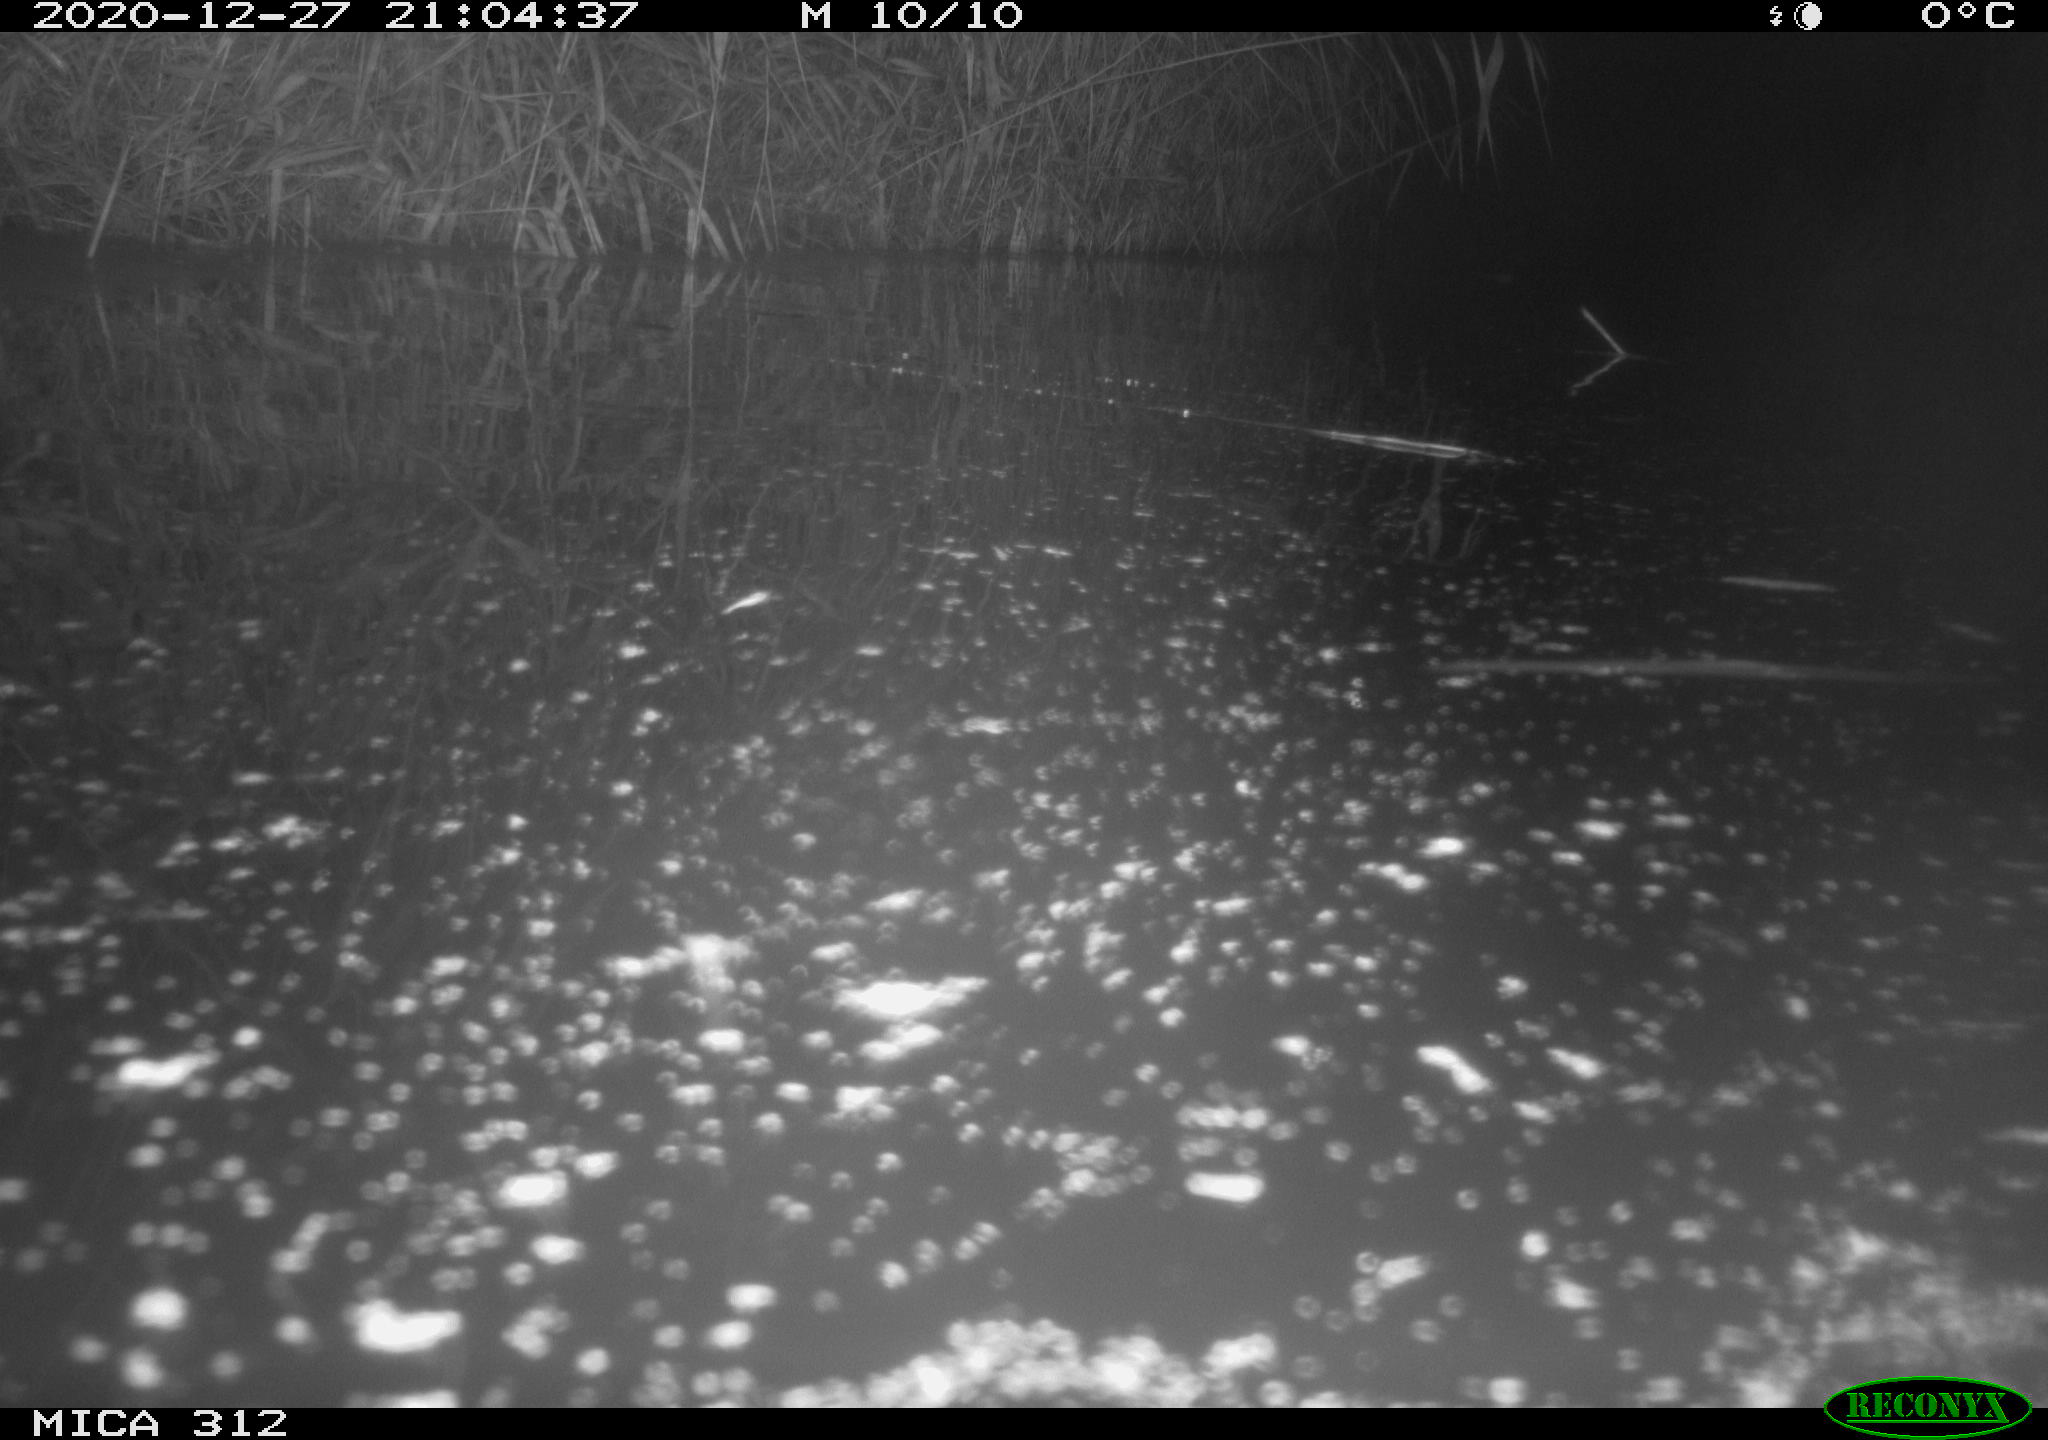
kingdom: Animalia
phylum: Chordata
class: Aves
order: Gruiformes
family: Rallidae
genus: Fulica
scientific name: Fulica atra
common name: Eurasian coot
